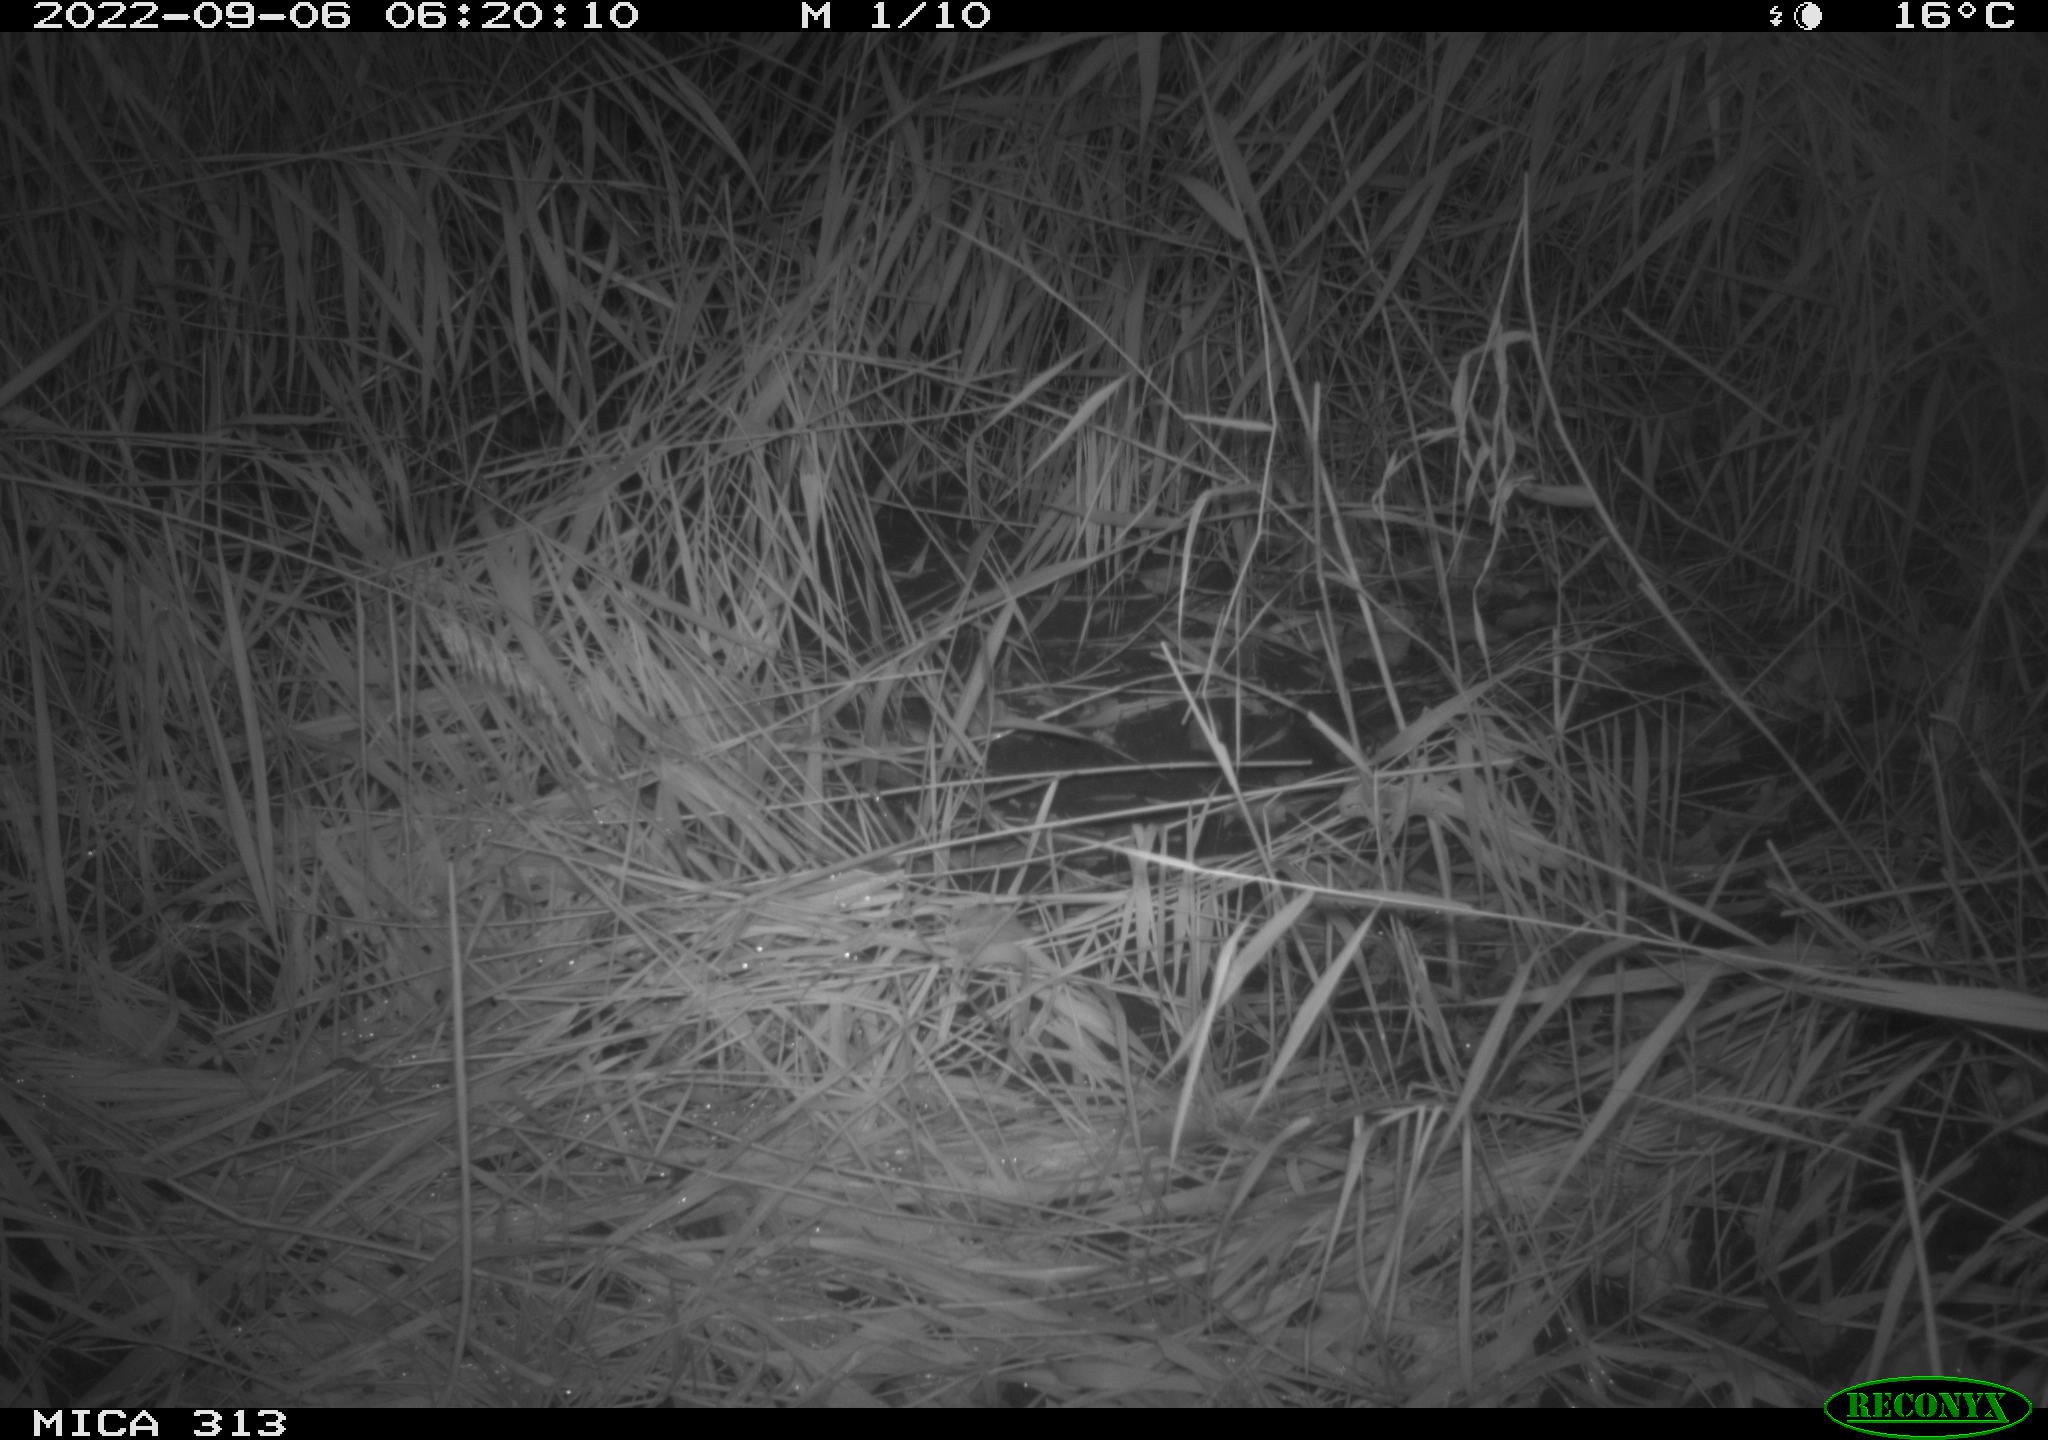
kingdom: Animalia
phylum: Chordata
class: Mammalia
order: Rodentia
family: Muridae
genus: Rattus
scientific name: Rattus norvegicus
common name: Brown rat
